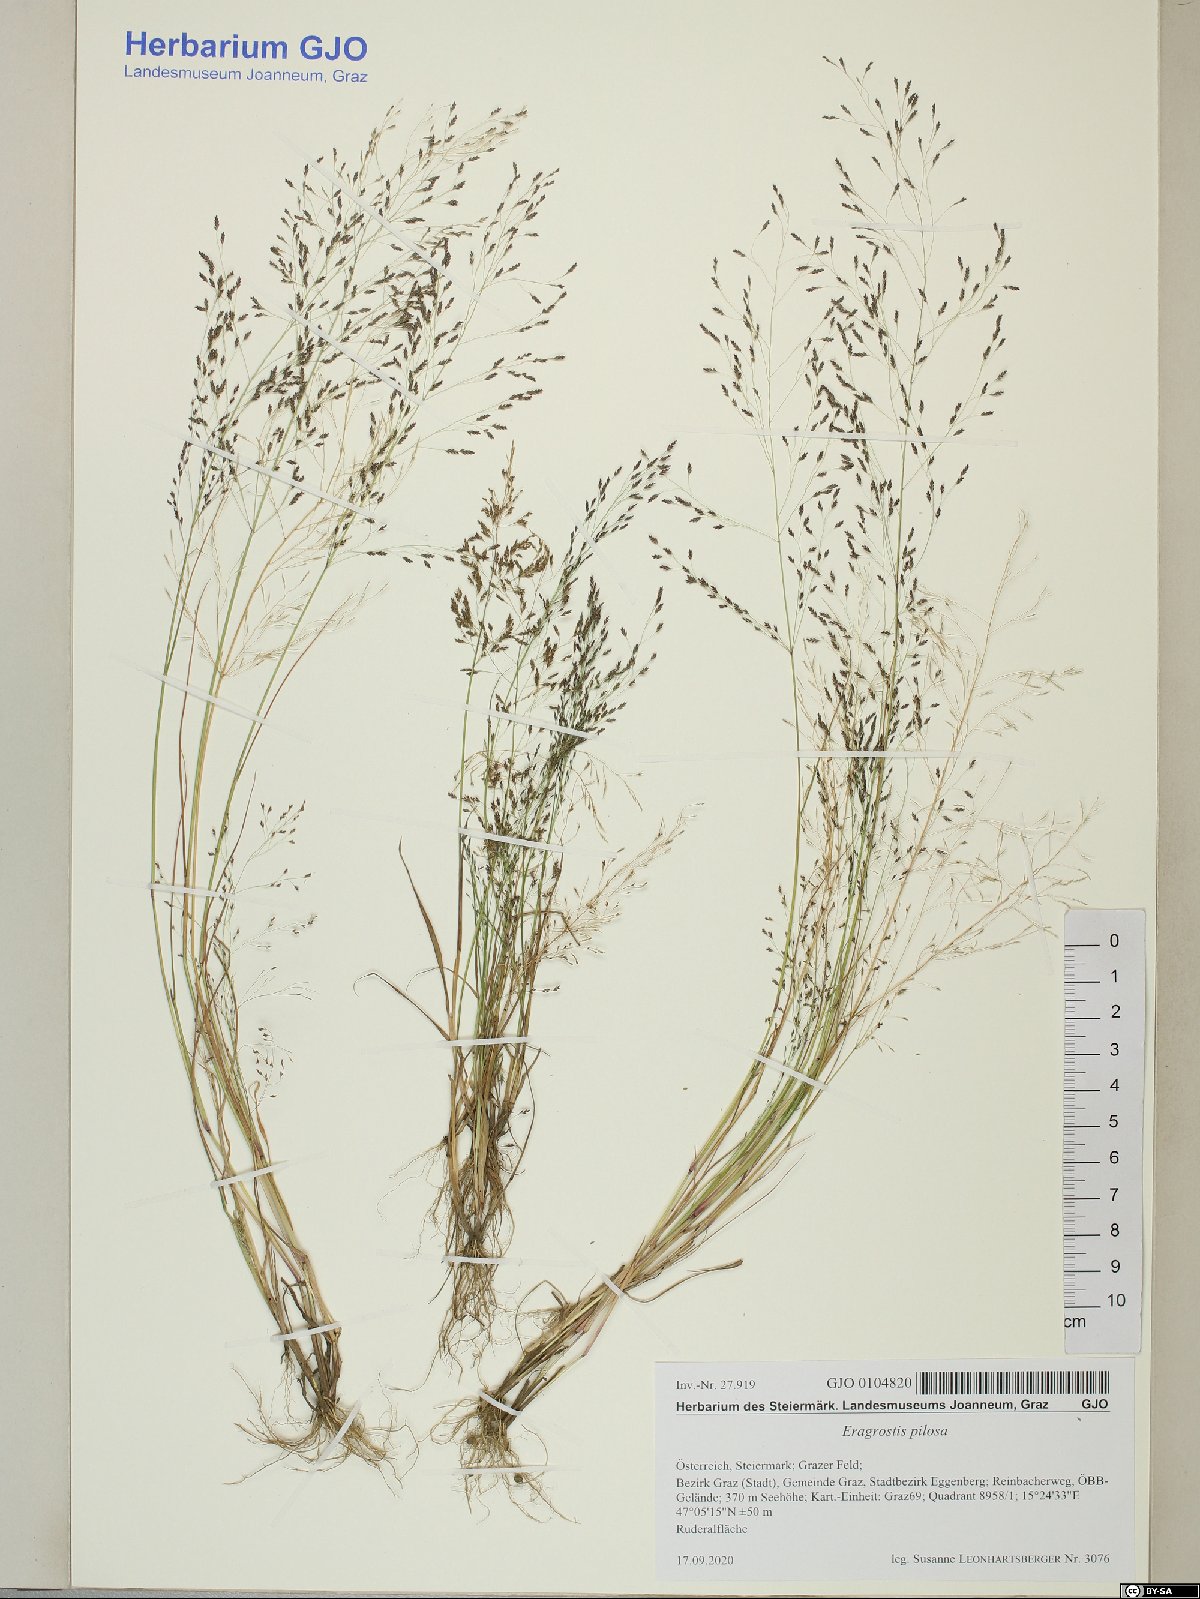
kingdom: Plantae
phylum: Tracheophyta
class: Liliopsida
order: Poales
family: Poaceae
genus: Eragrostis
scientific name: Eragrostis pilosa
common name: Indian lovegrass
